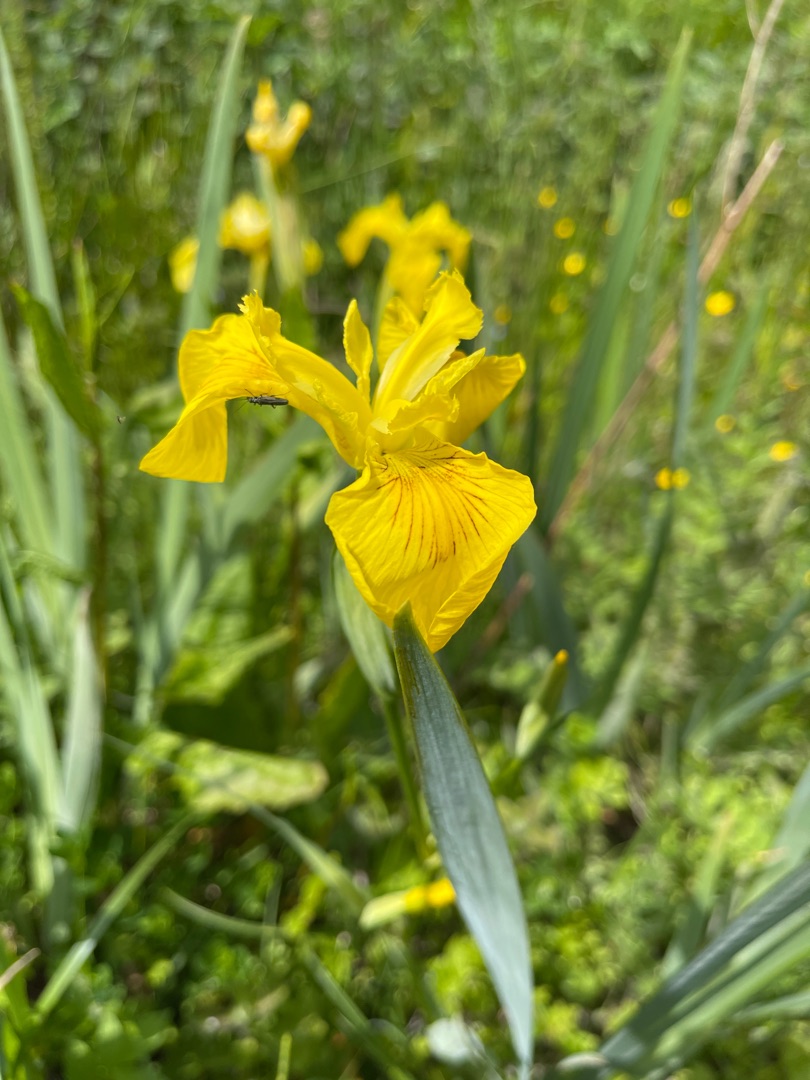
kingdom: Plantae
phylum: Tracheophyta
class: Liliopsida
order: Asparagales
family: Iridaceae
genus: Iris
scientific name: Iris pseudacorus
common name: Gul iris
